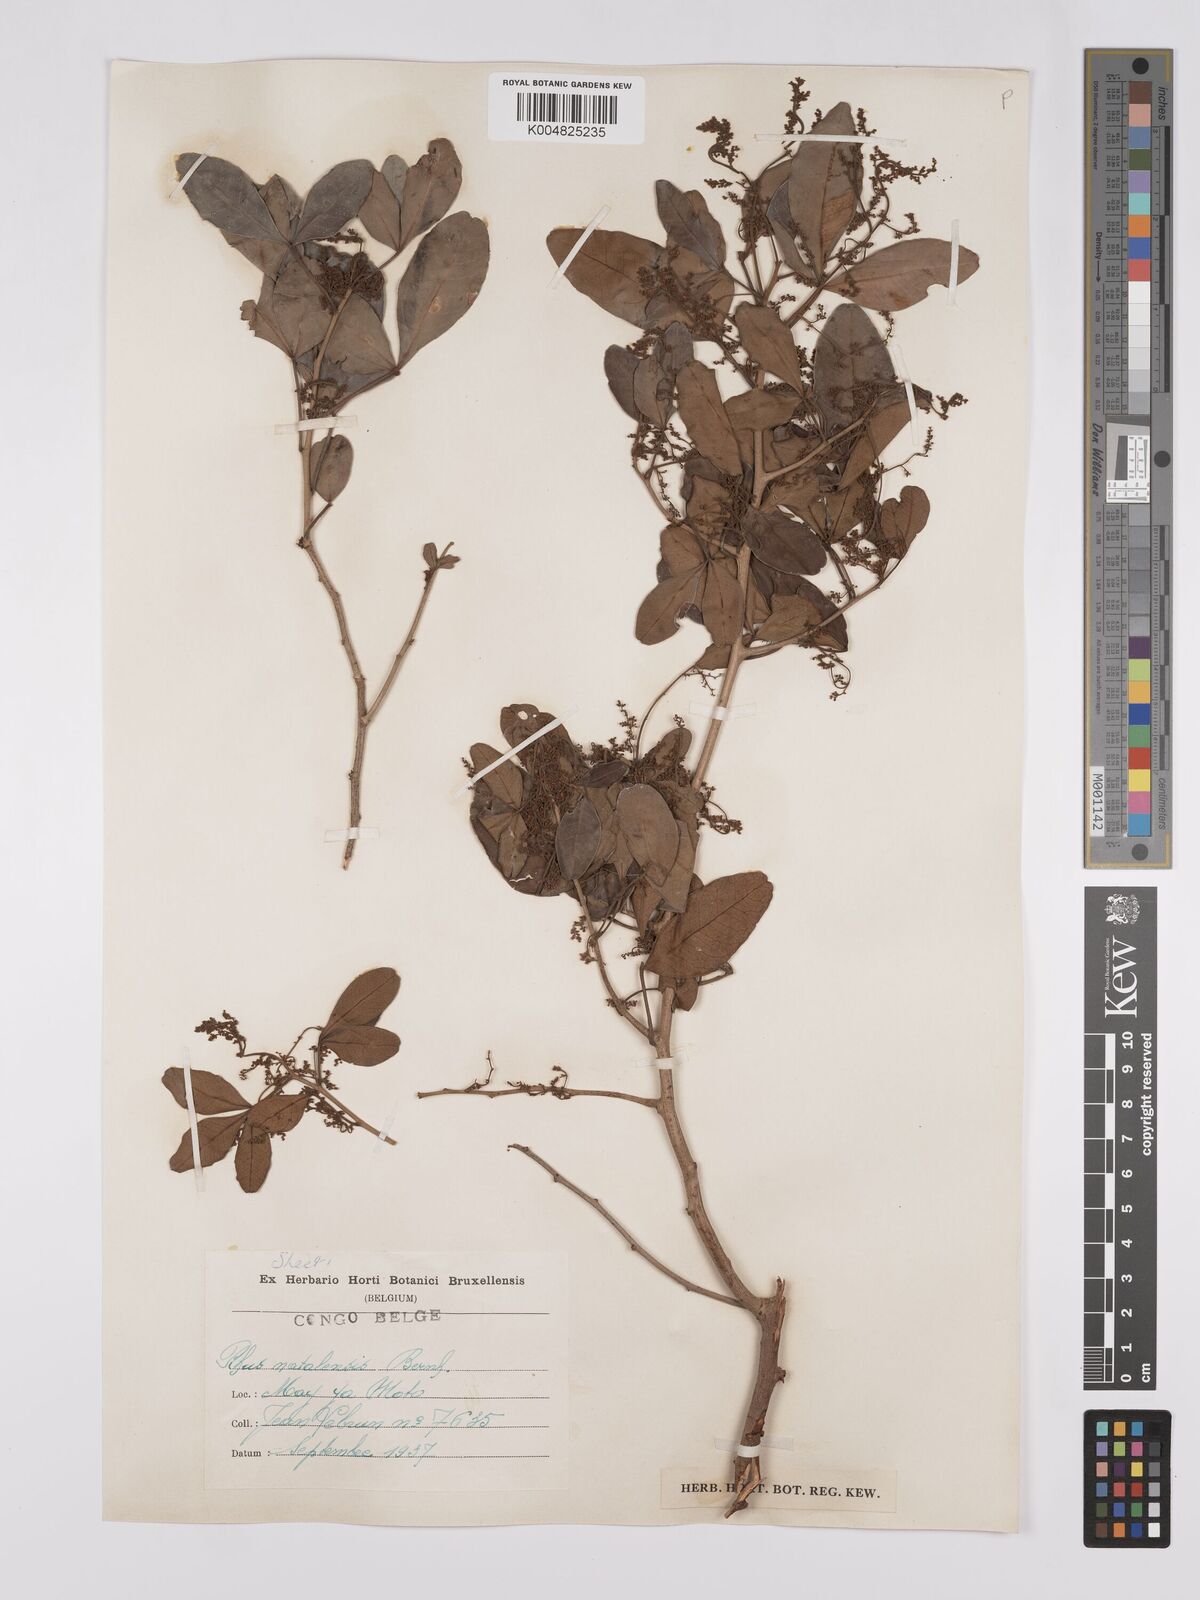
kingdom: Plantae
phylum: Tracheophyta
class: Magnoliopsida
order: Sapindales
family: Anacardiaceae
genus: Searsia
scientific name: Searsia natalensis
